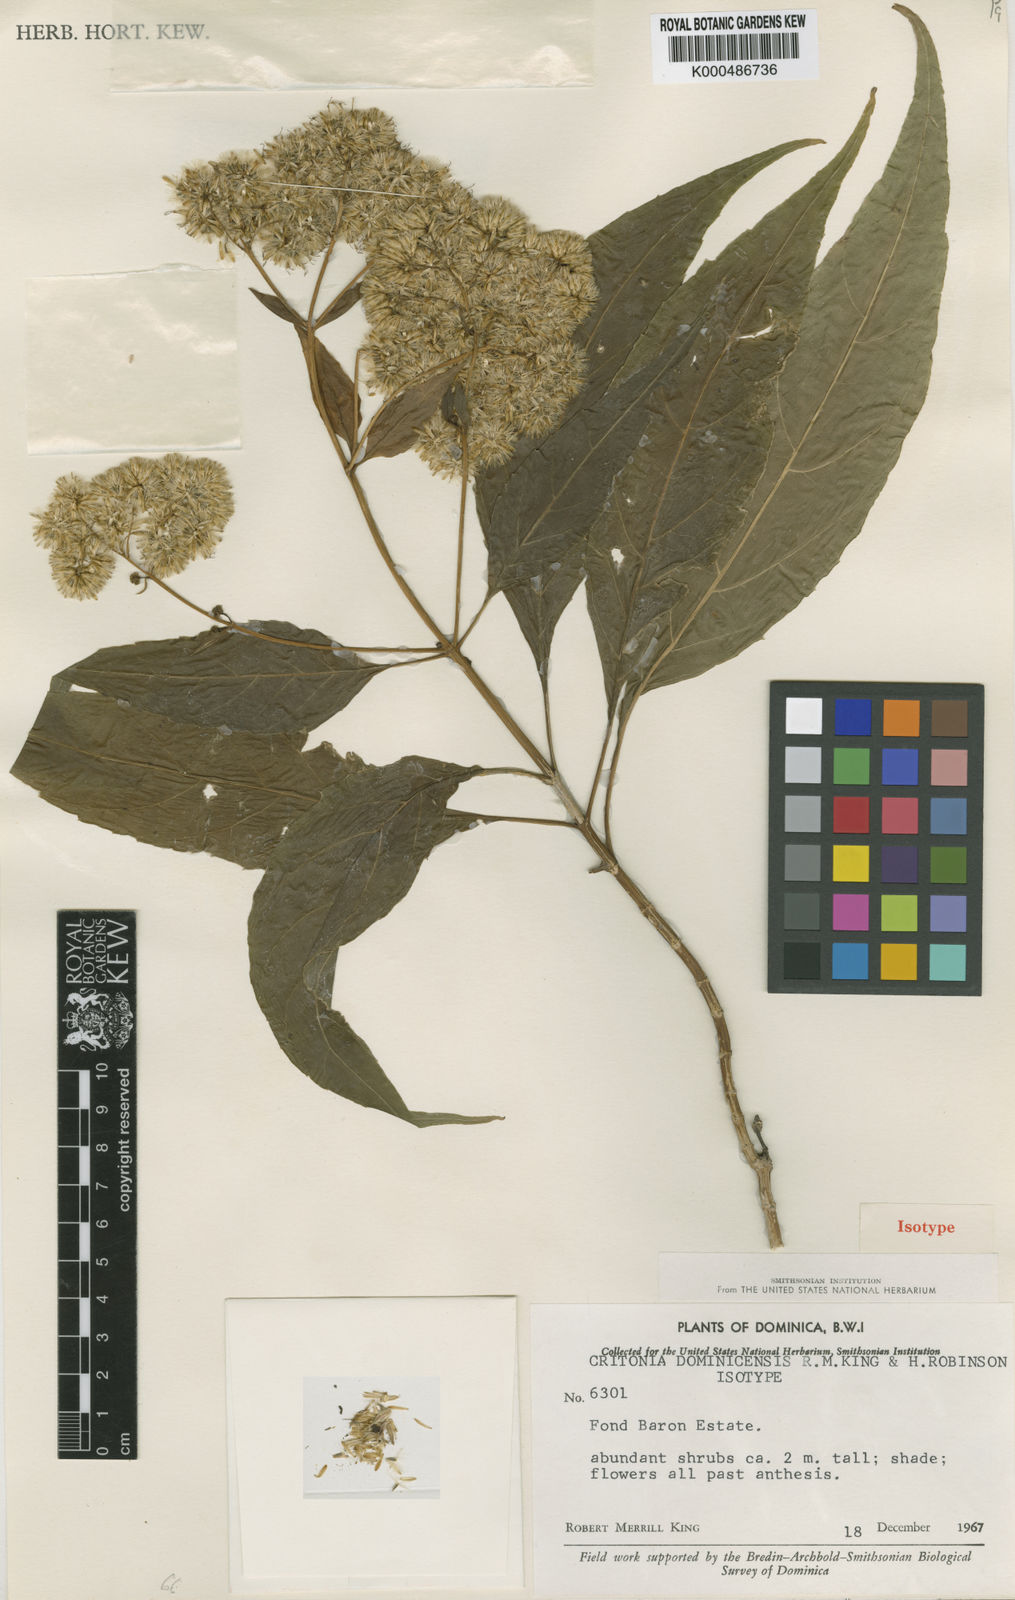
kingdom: Plantae
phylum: Tracheophyta
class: Magnoliopsida
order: Asterales
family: Asteraceae
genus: Critonia
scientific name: Critonia dominicensis
